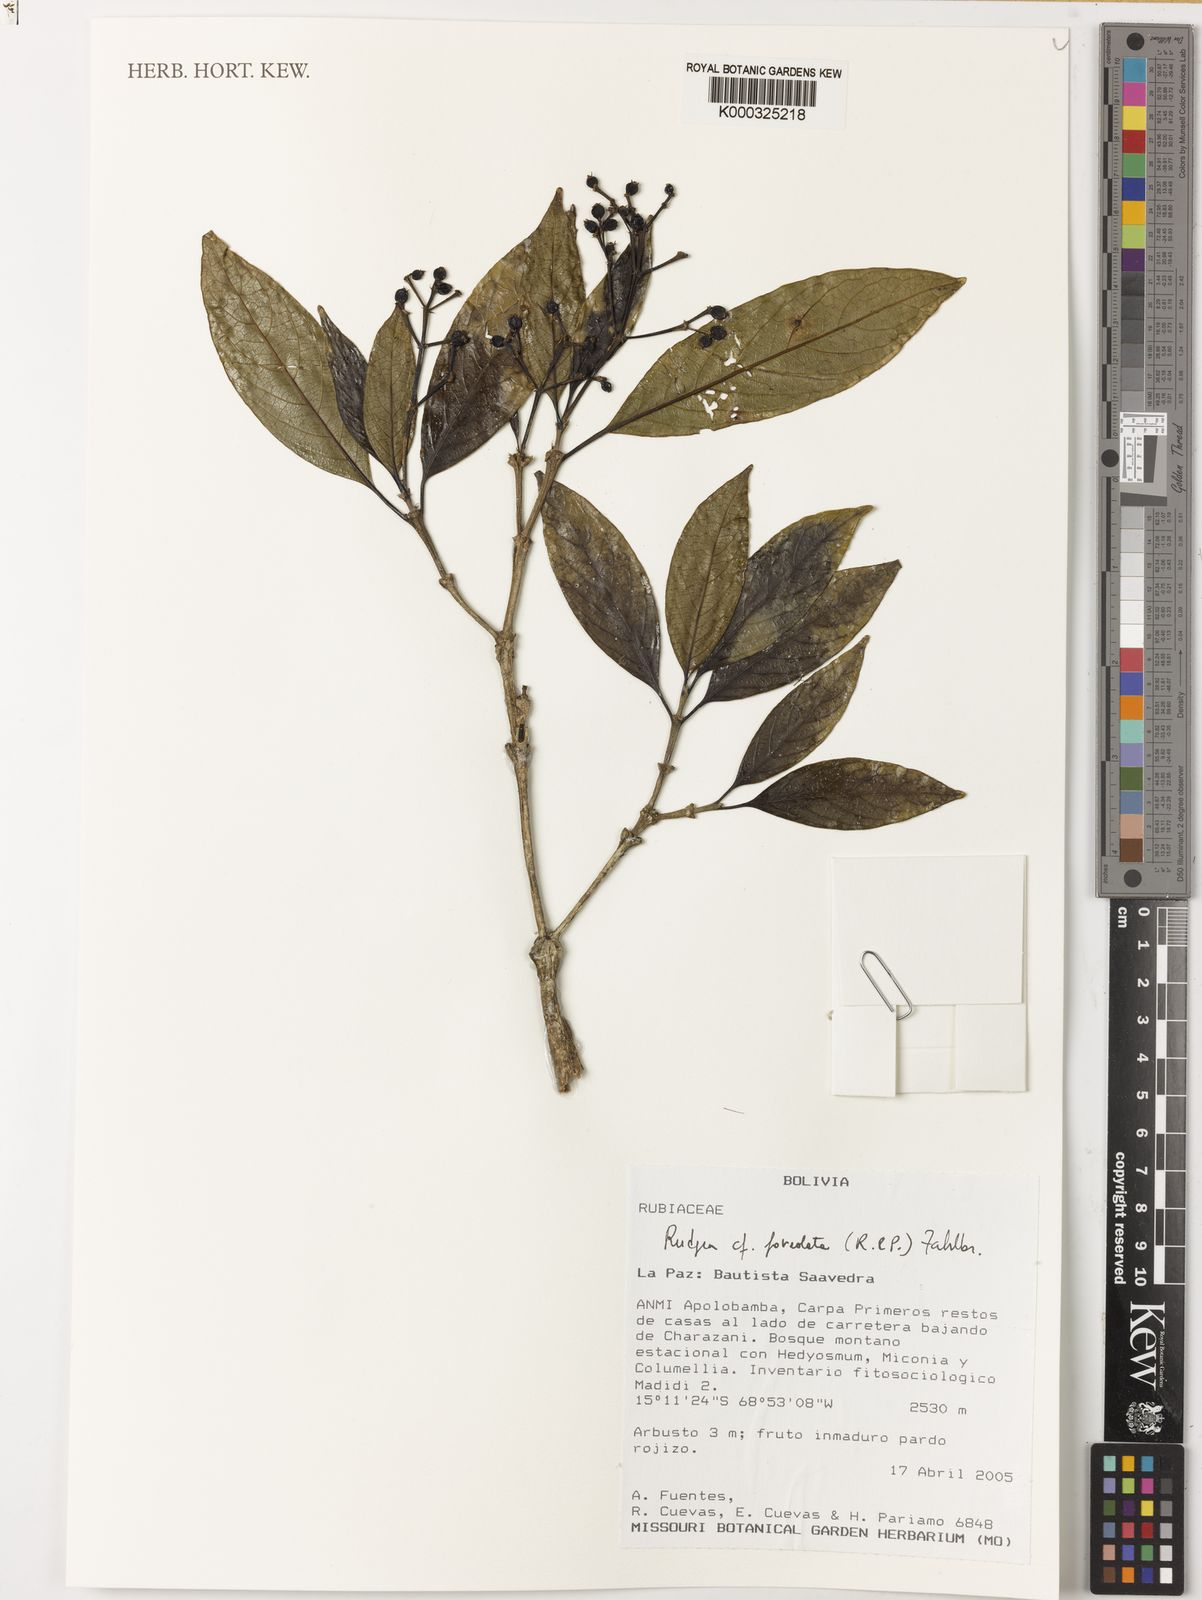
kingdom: Plantae
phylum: Tracheophyta
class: Magnoliopsida
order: Gentianales
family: Rubiaceae
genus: Rudgea
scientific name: Rudgea foveolata
